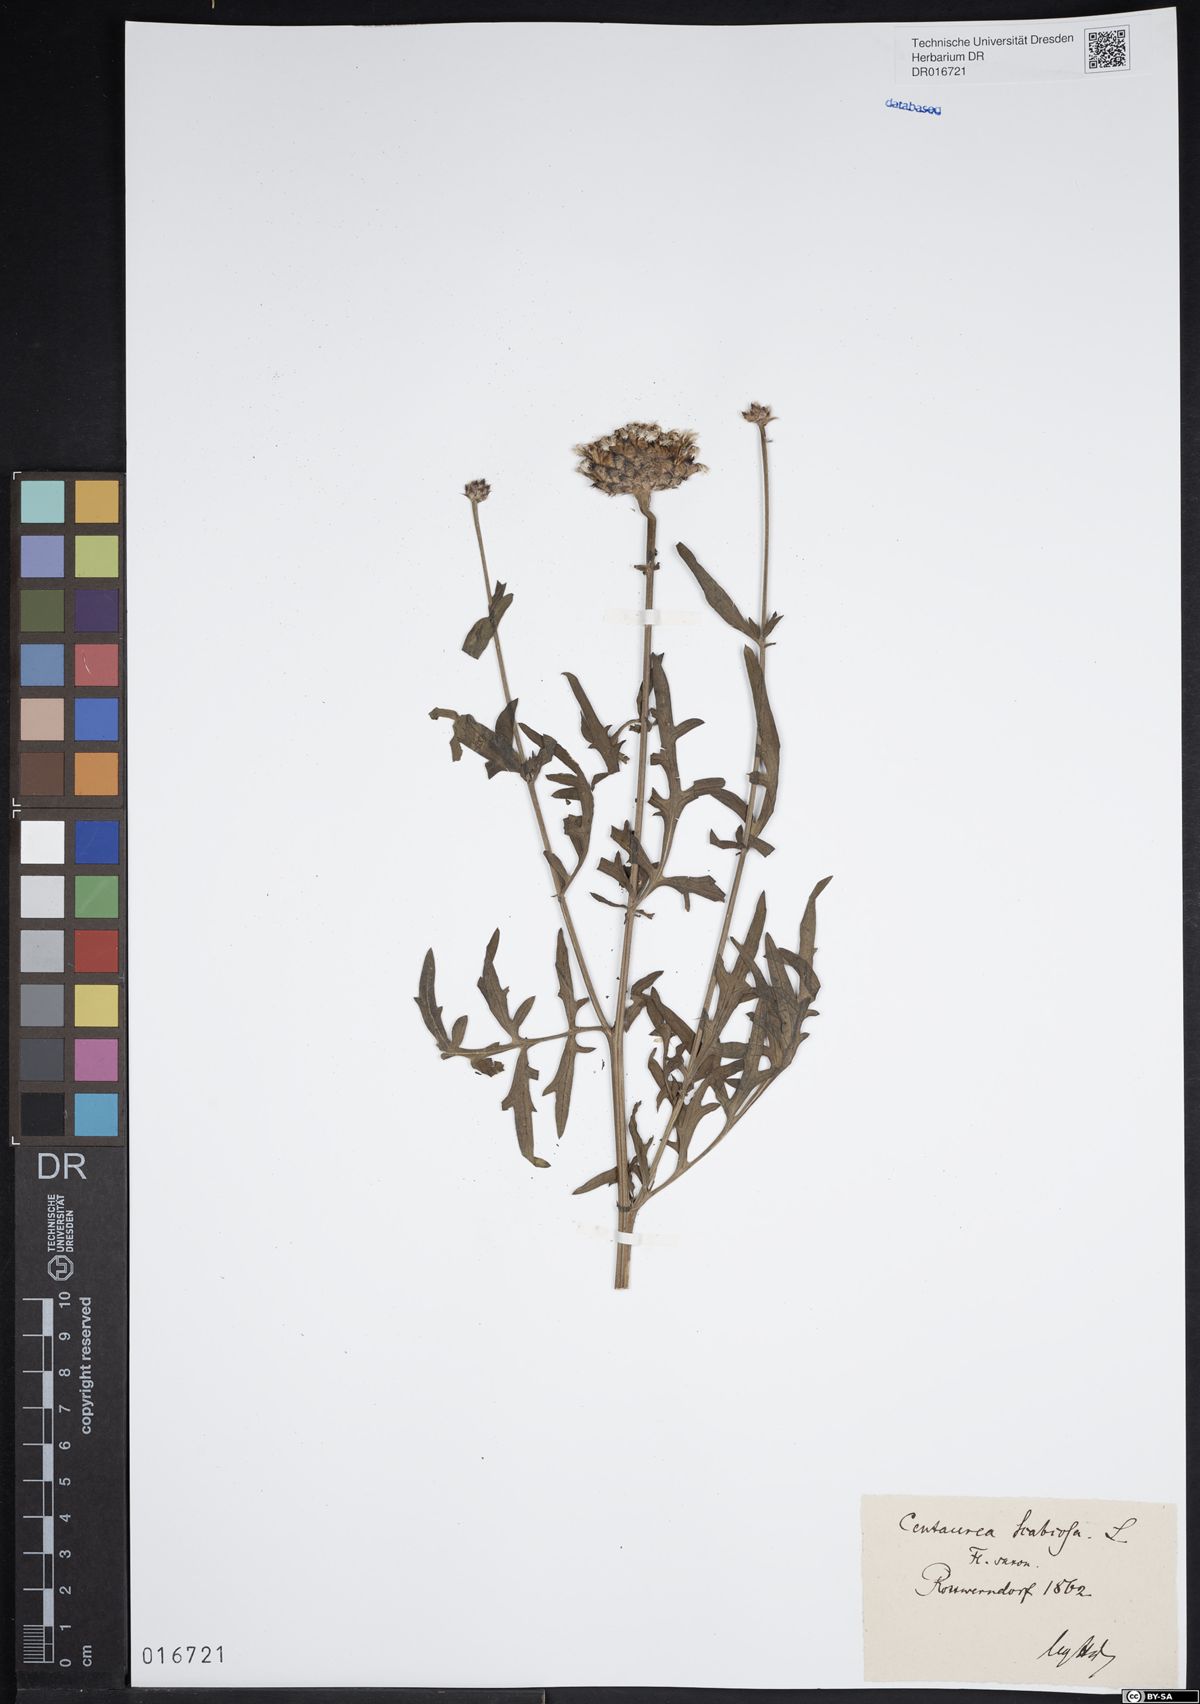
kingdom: Plantae
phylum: Tracheophyta
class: Magnoliopsida
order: Asterales
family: Asteraceae
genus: Centaurea
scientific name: Centaurea scabiosa
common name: Greater knapweed
